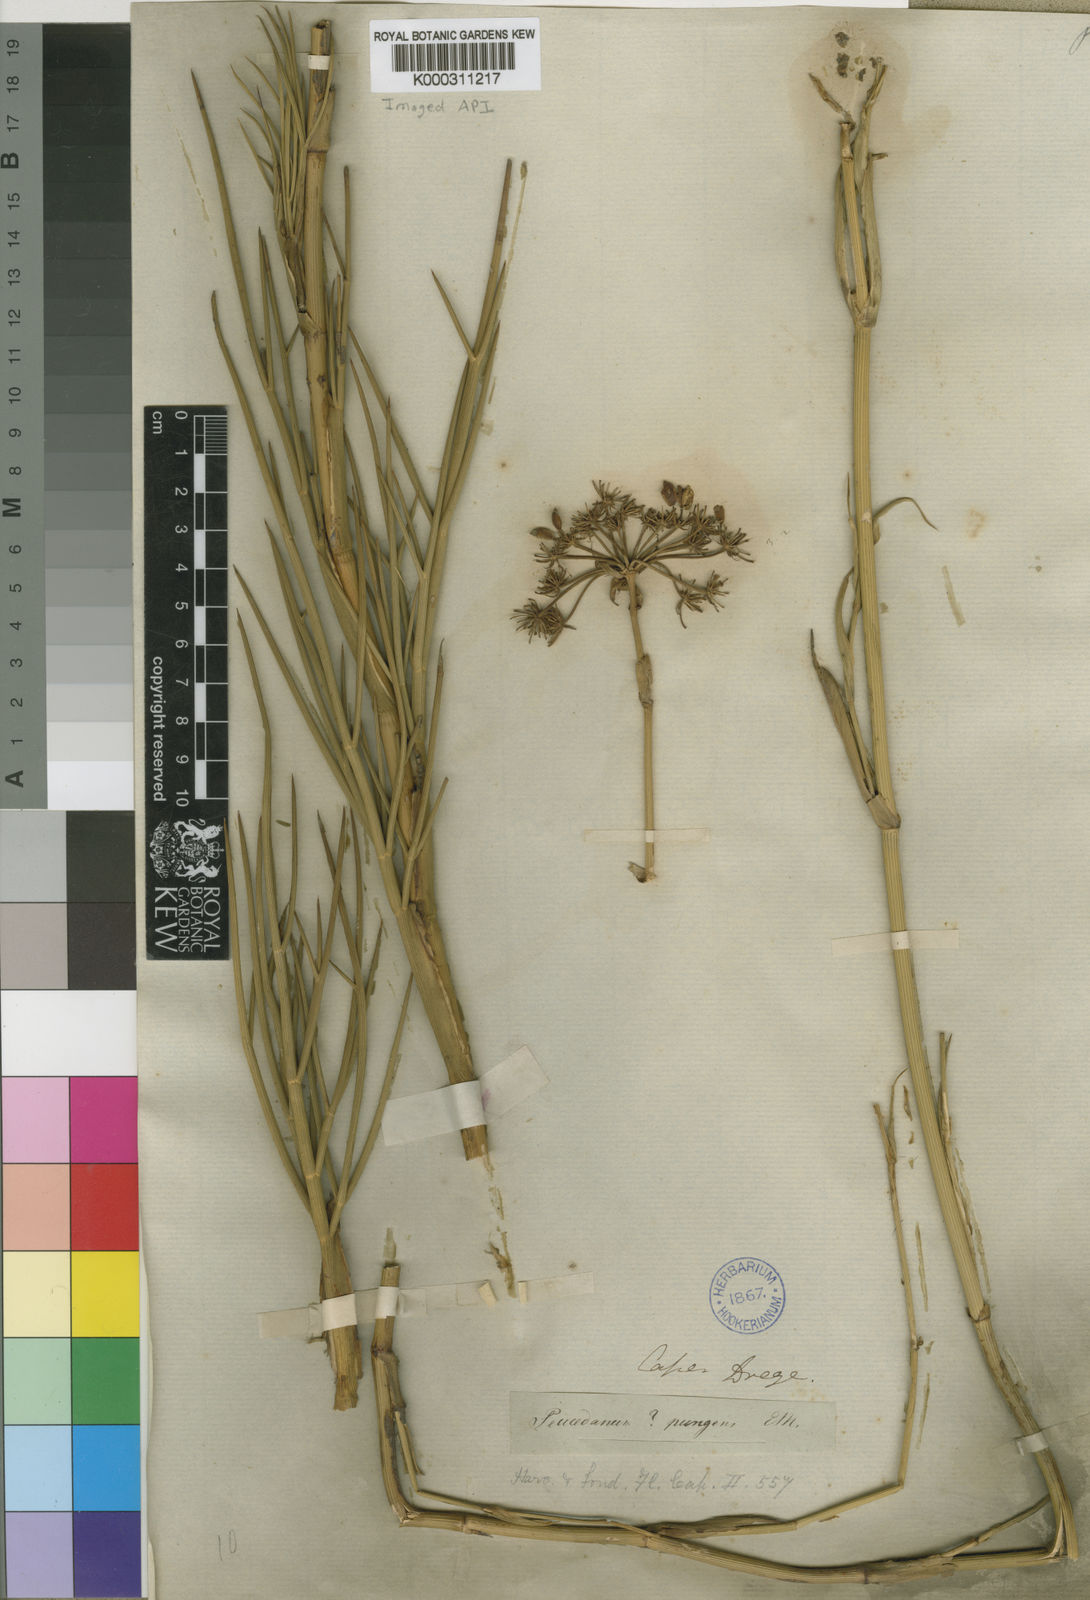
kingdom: Plantae
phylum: Tracheophyta
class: Magnoliopsida
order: Apiales
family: Apiaceae
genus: Notobubon
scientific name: Notobubon pungens
